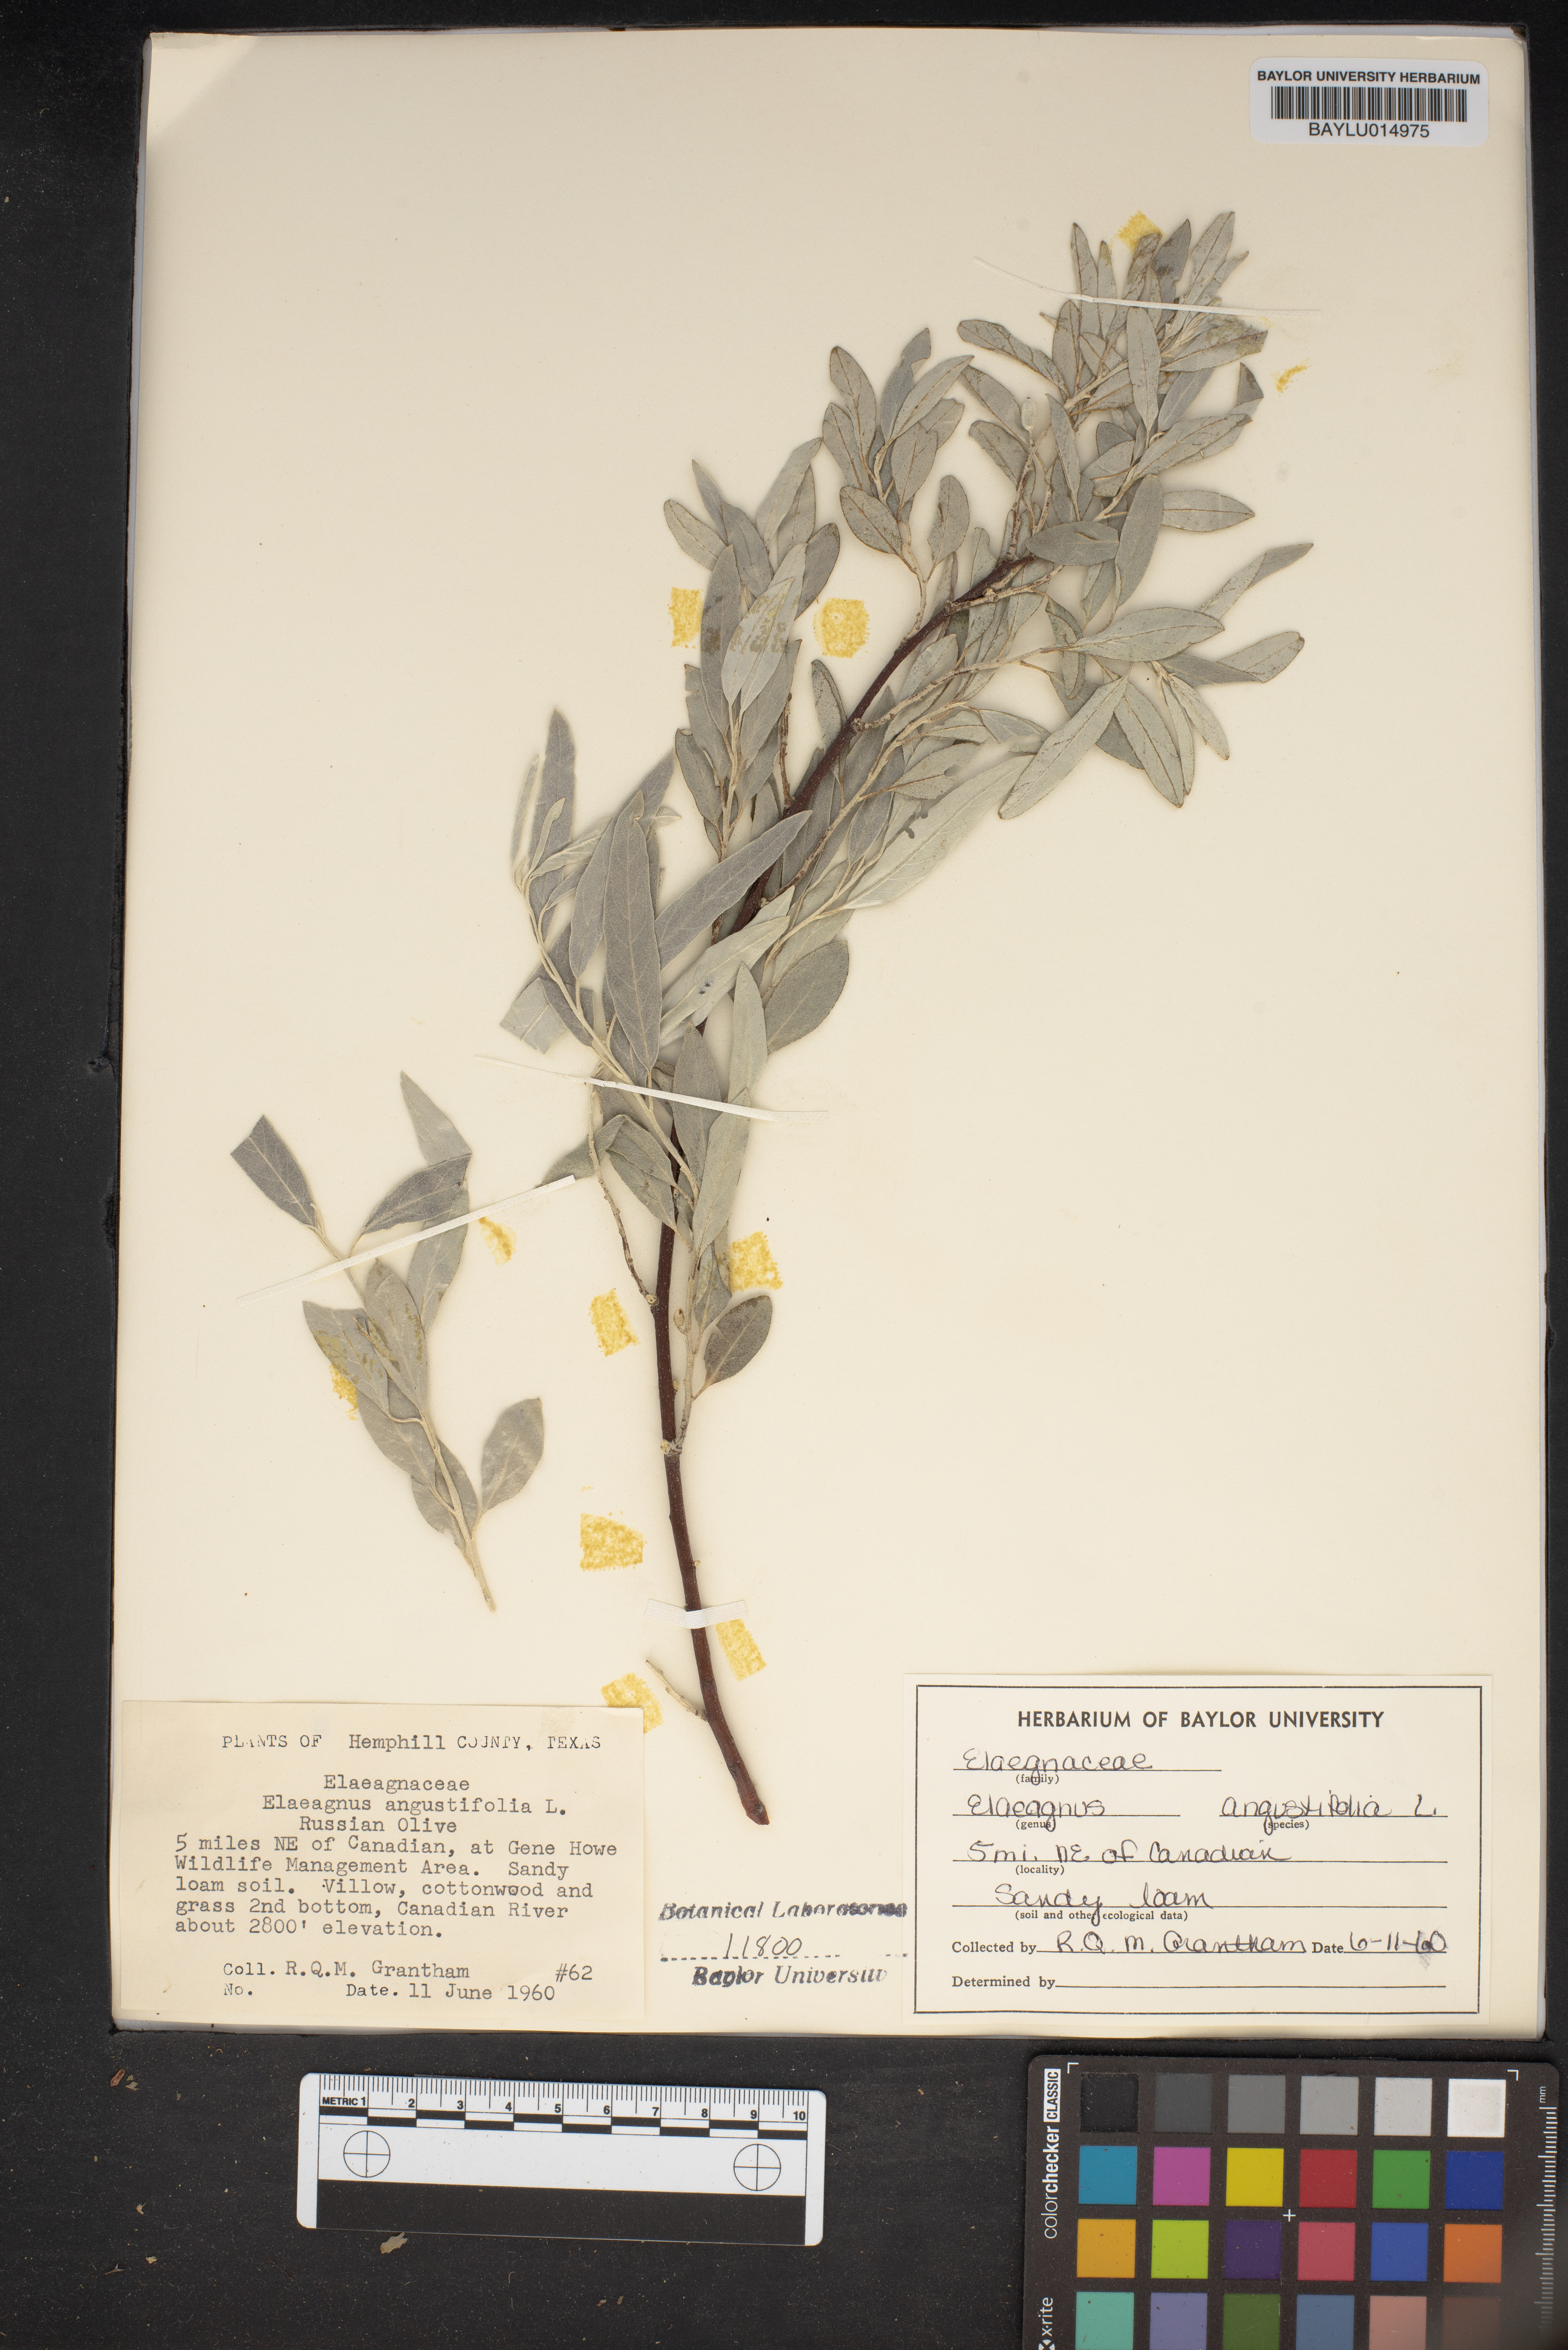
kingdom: Plantae
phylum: Tracheophyta
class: Magnoliopsida
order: Rosales
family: Elaeagnaceae
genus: Elaeagnus
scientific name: Elaeagnus angustifolia
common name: Russian olive
